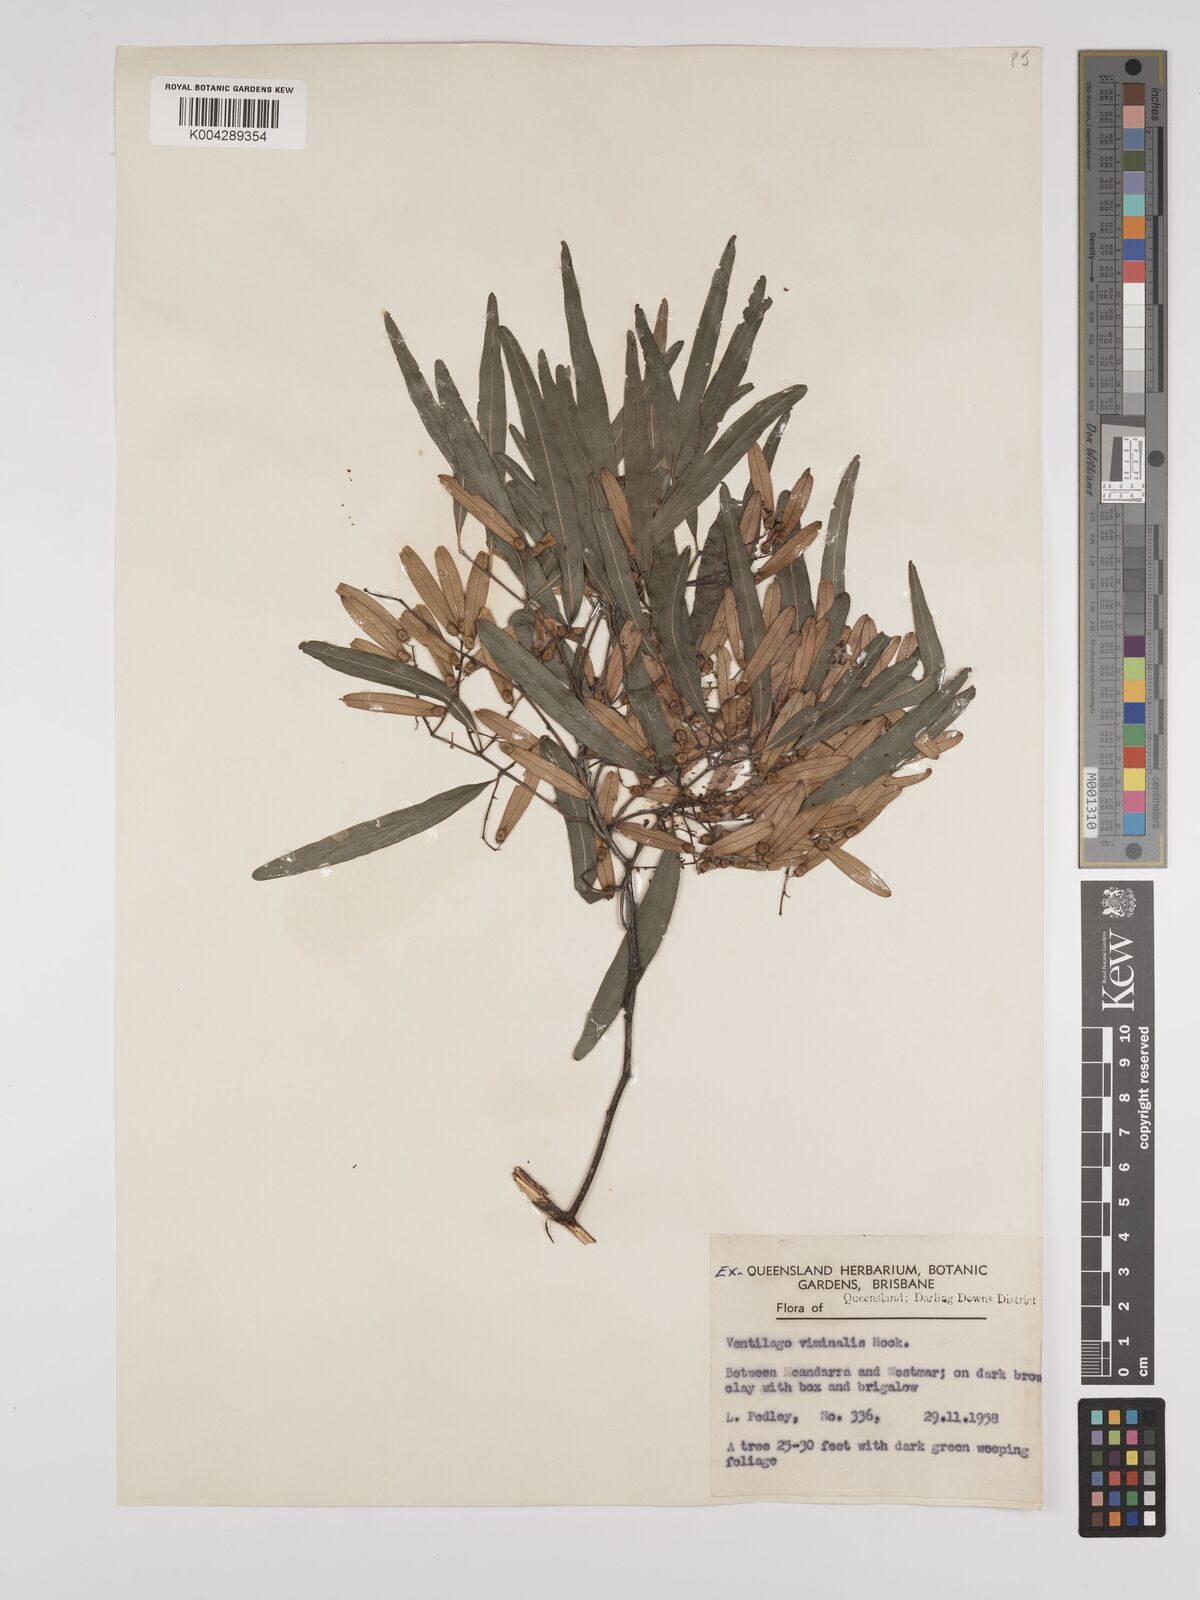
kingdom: Plantae
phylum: Tracheophyta
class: Magnoliopsida
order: Rosales
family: Rhamnaceae
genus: Ventilago
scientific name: Ventilago viminalis
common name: Medicine-bark
